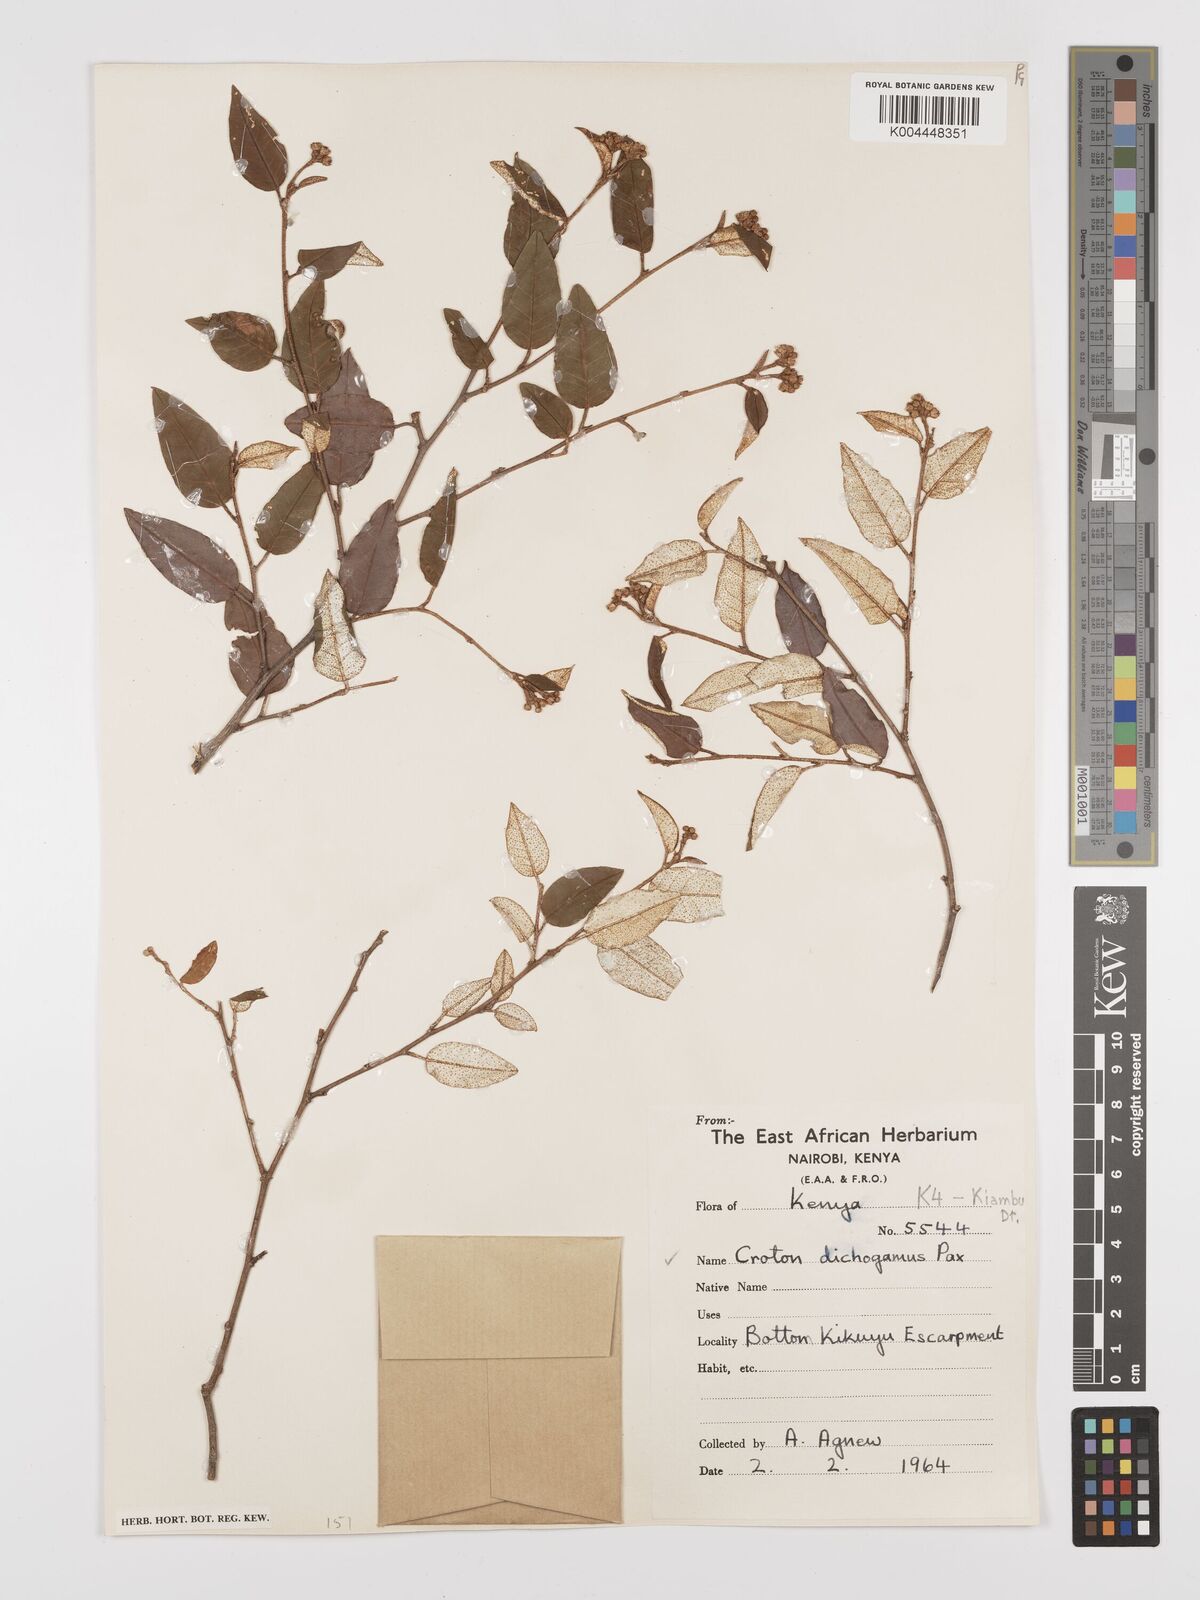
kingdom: Plantae
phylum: Tracheophyta
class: Magnoliopsida
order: Malpighiales
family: Euphorbiaceae
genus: Croton
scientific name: Croton dichogamus
